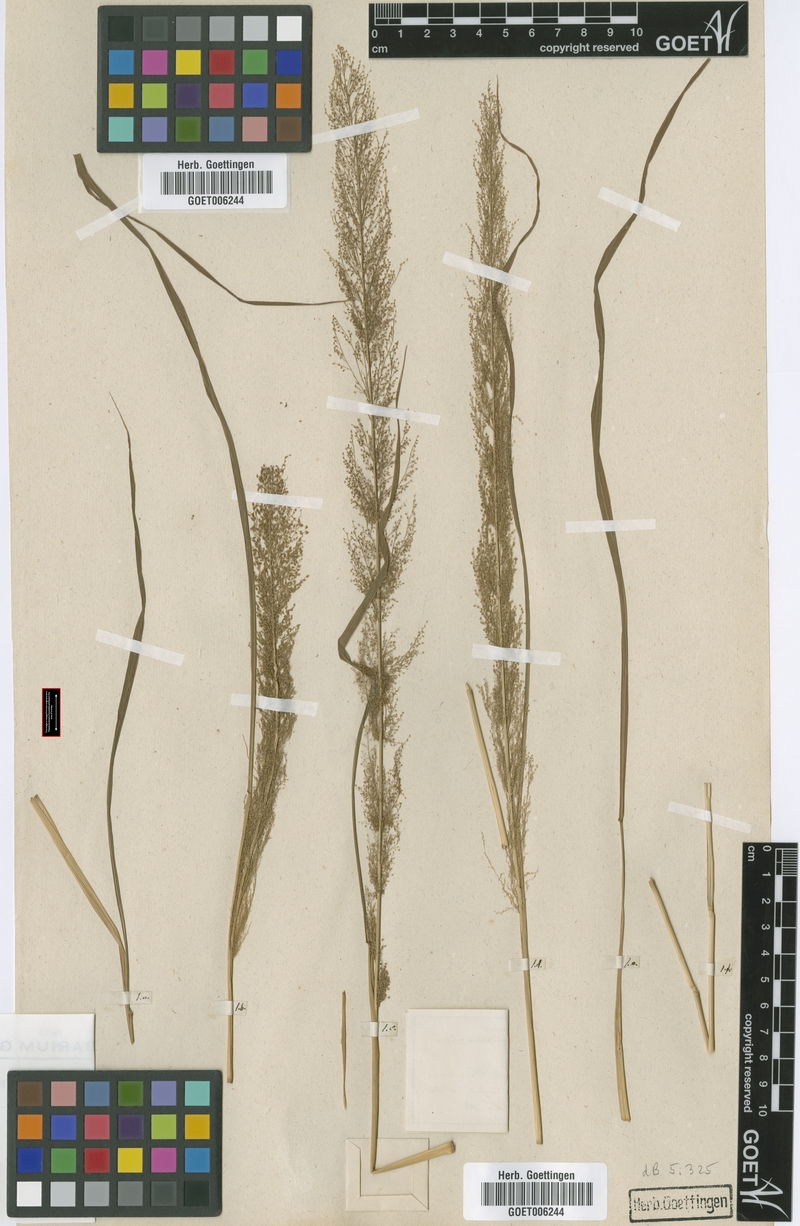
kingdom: Plantae
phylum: Tracheophyta
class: Liliopsida
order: Poales
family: Poaceae
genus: Eragrostis
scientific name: Eragrostis japonica
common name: Pond lovegrass
